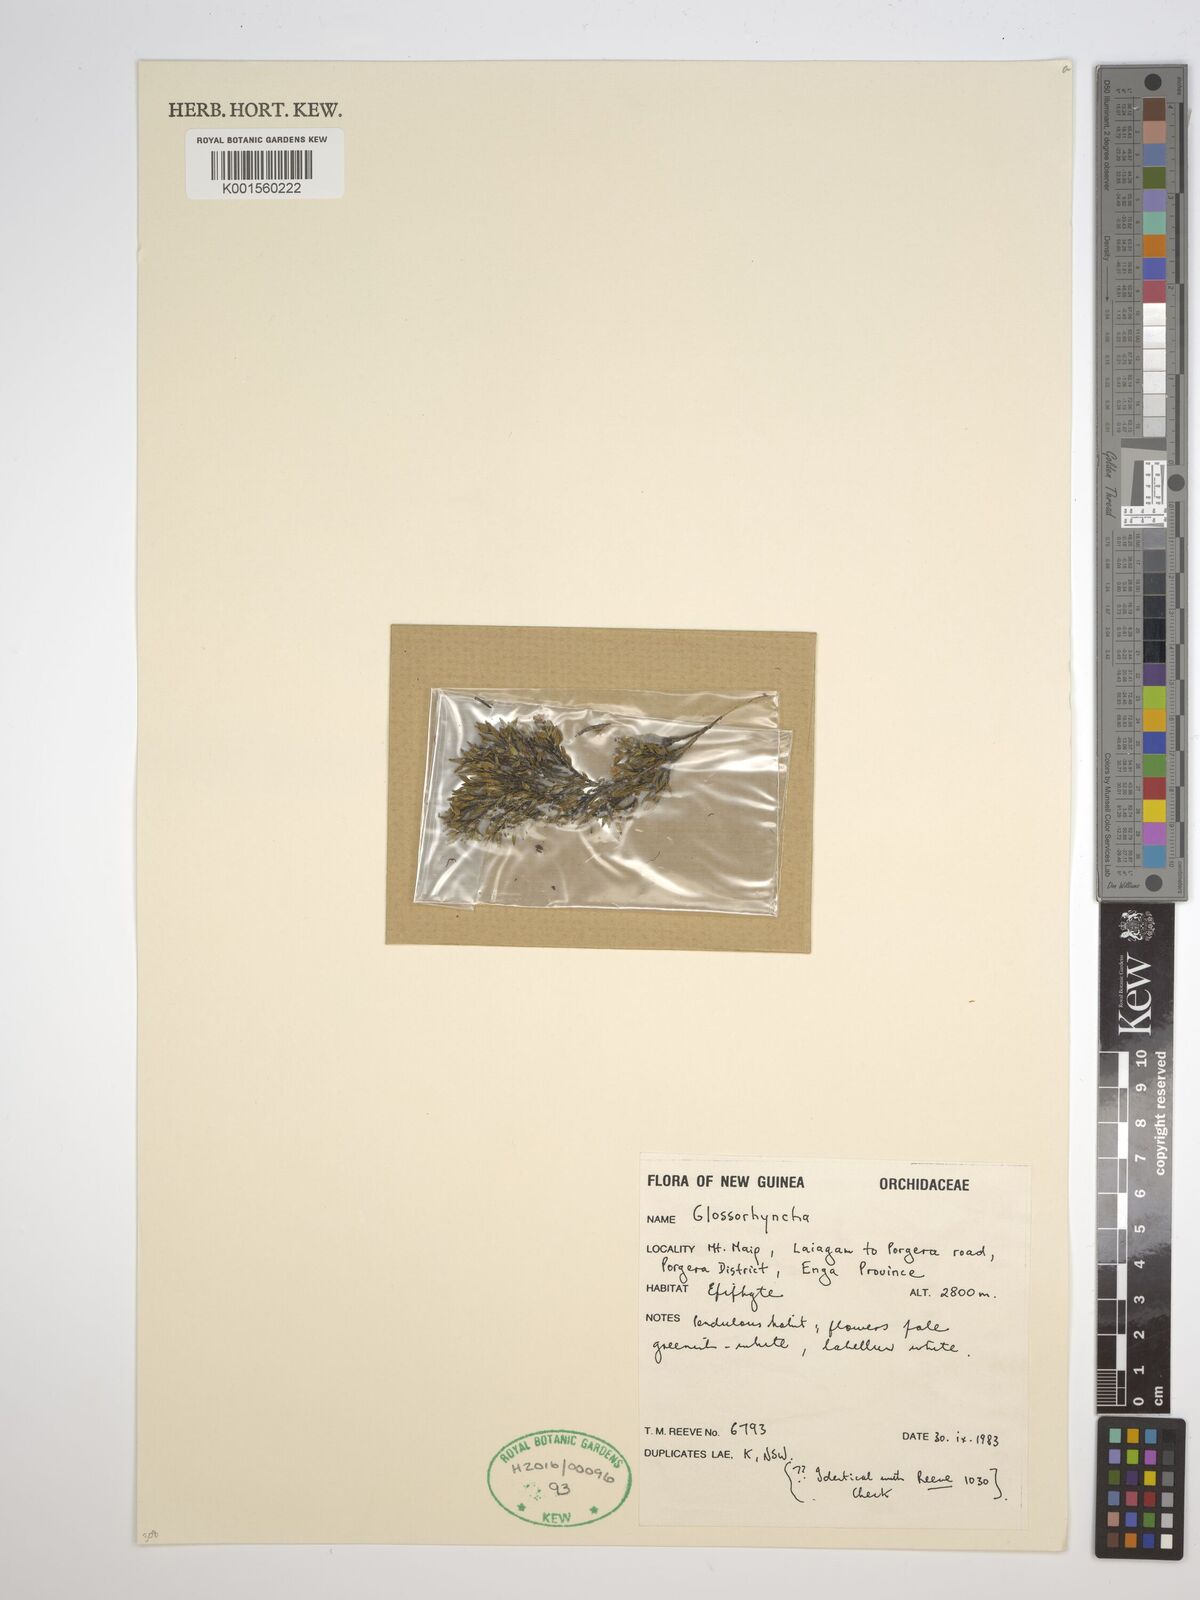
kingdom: Plantae
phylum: Tracheophyta
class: Liliopsida
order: Asparagales
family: Orchidaceae
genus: Glomera
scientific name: Glomera
